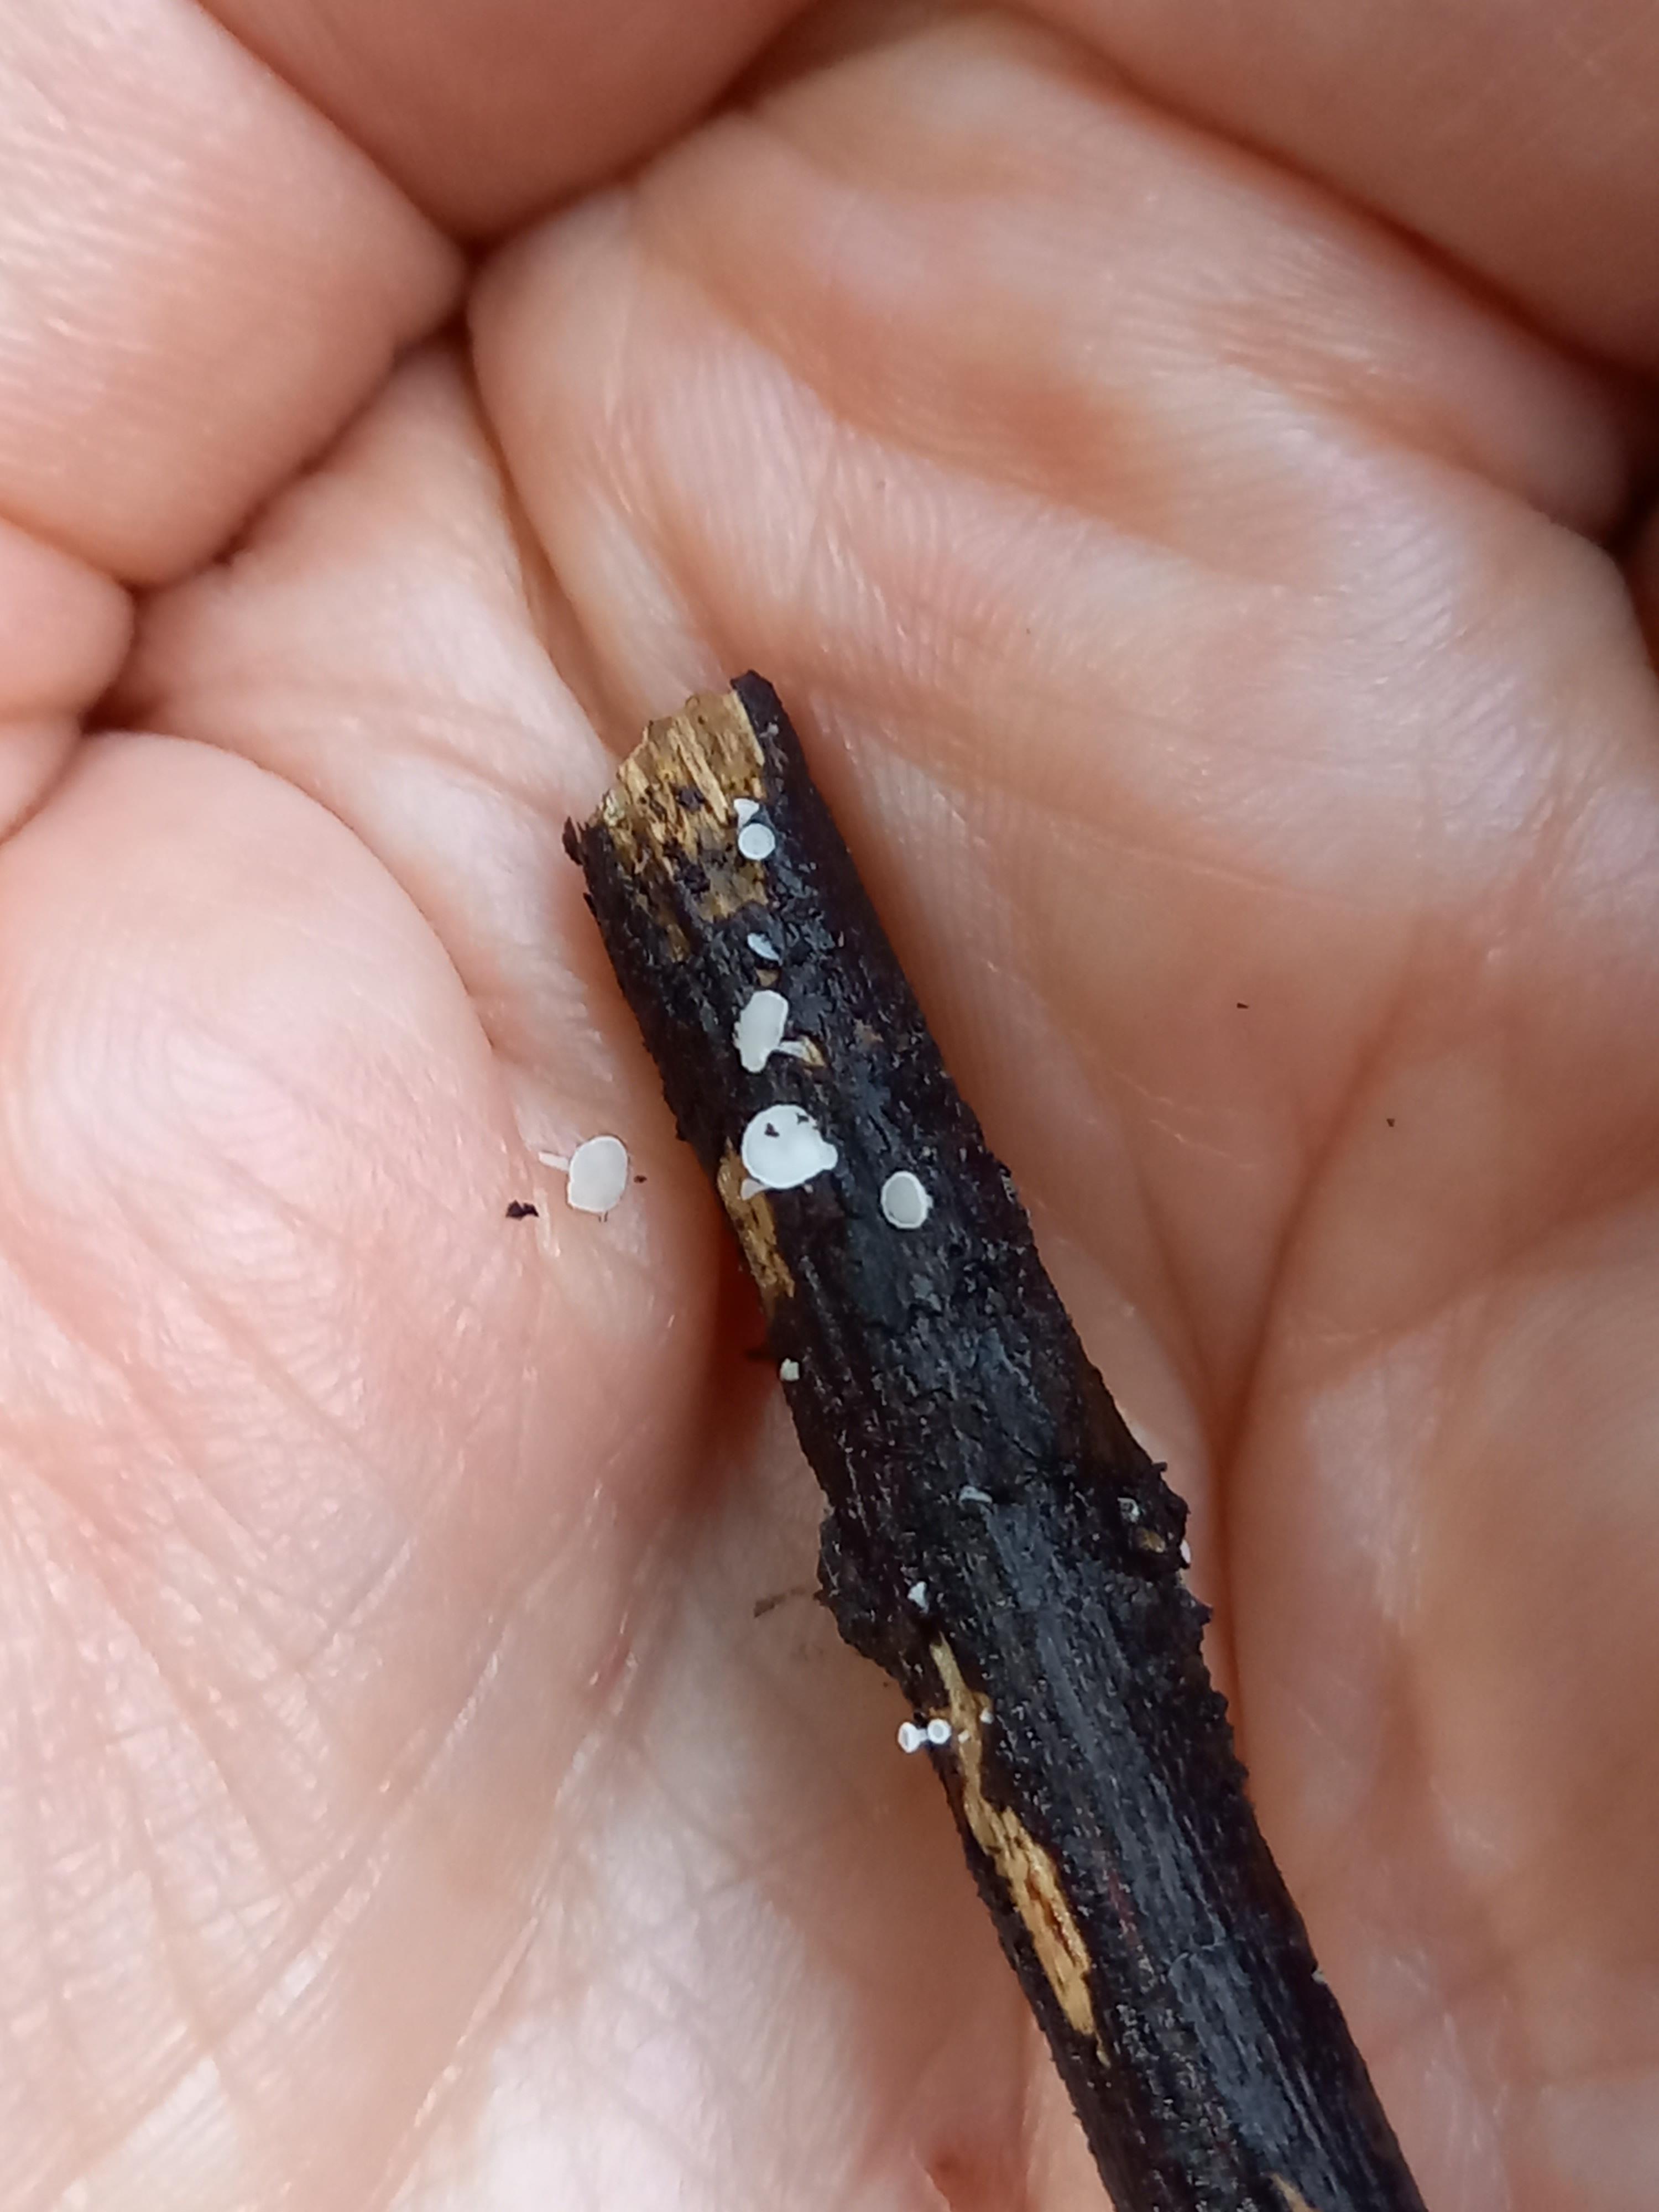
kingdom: Fungi
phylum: Ascomycota
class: Leotiomycetes
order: Helotiales
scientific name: Helotiales
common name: stilkskiveordenen
